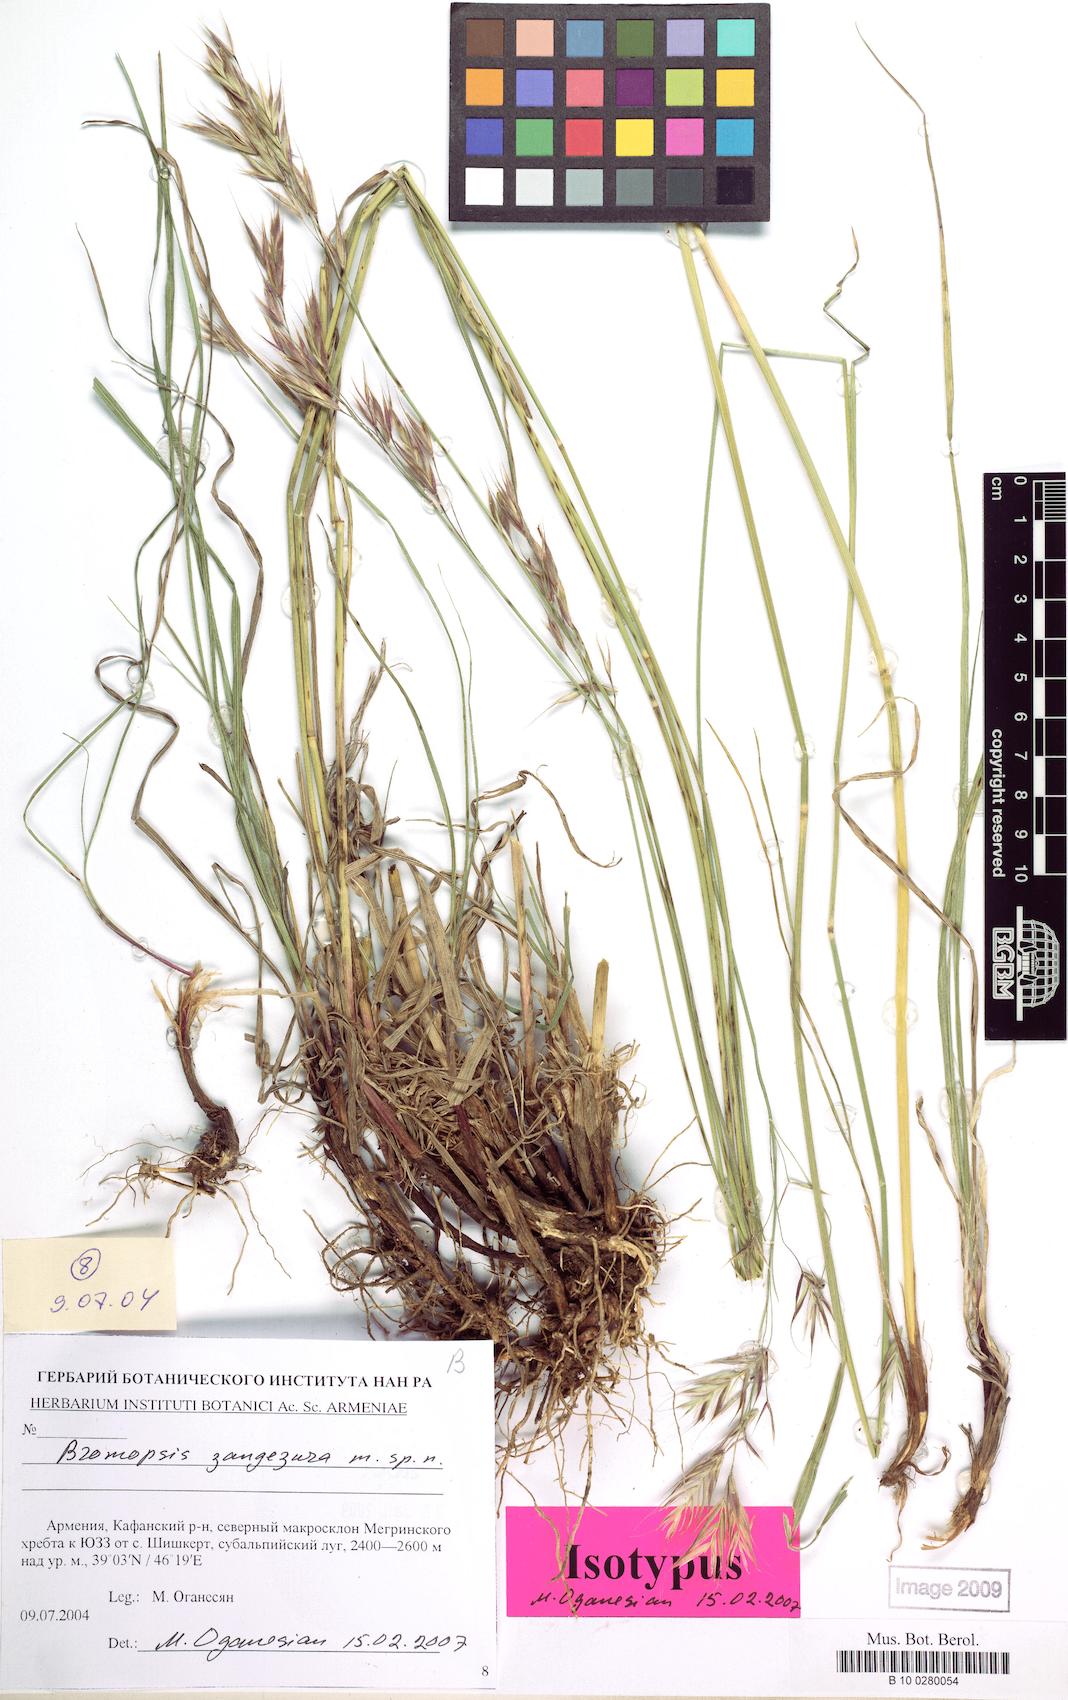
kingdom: Plantae
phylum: Tracheophyta
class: Liliopsida
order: Poales
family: Poaceae
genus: Bromus
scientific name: Bromus erectus
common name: Erect brome
